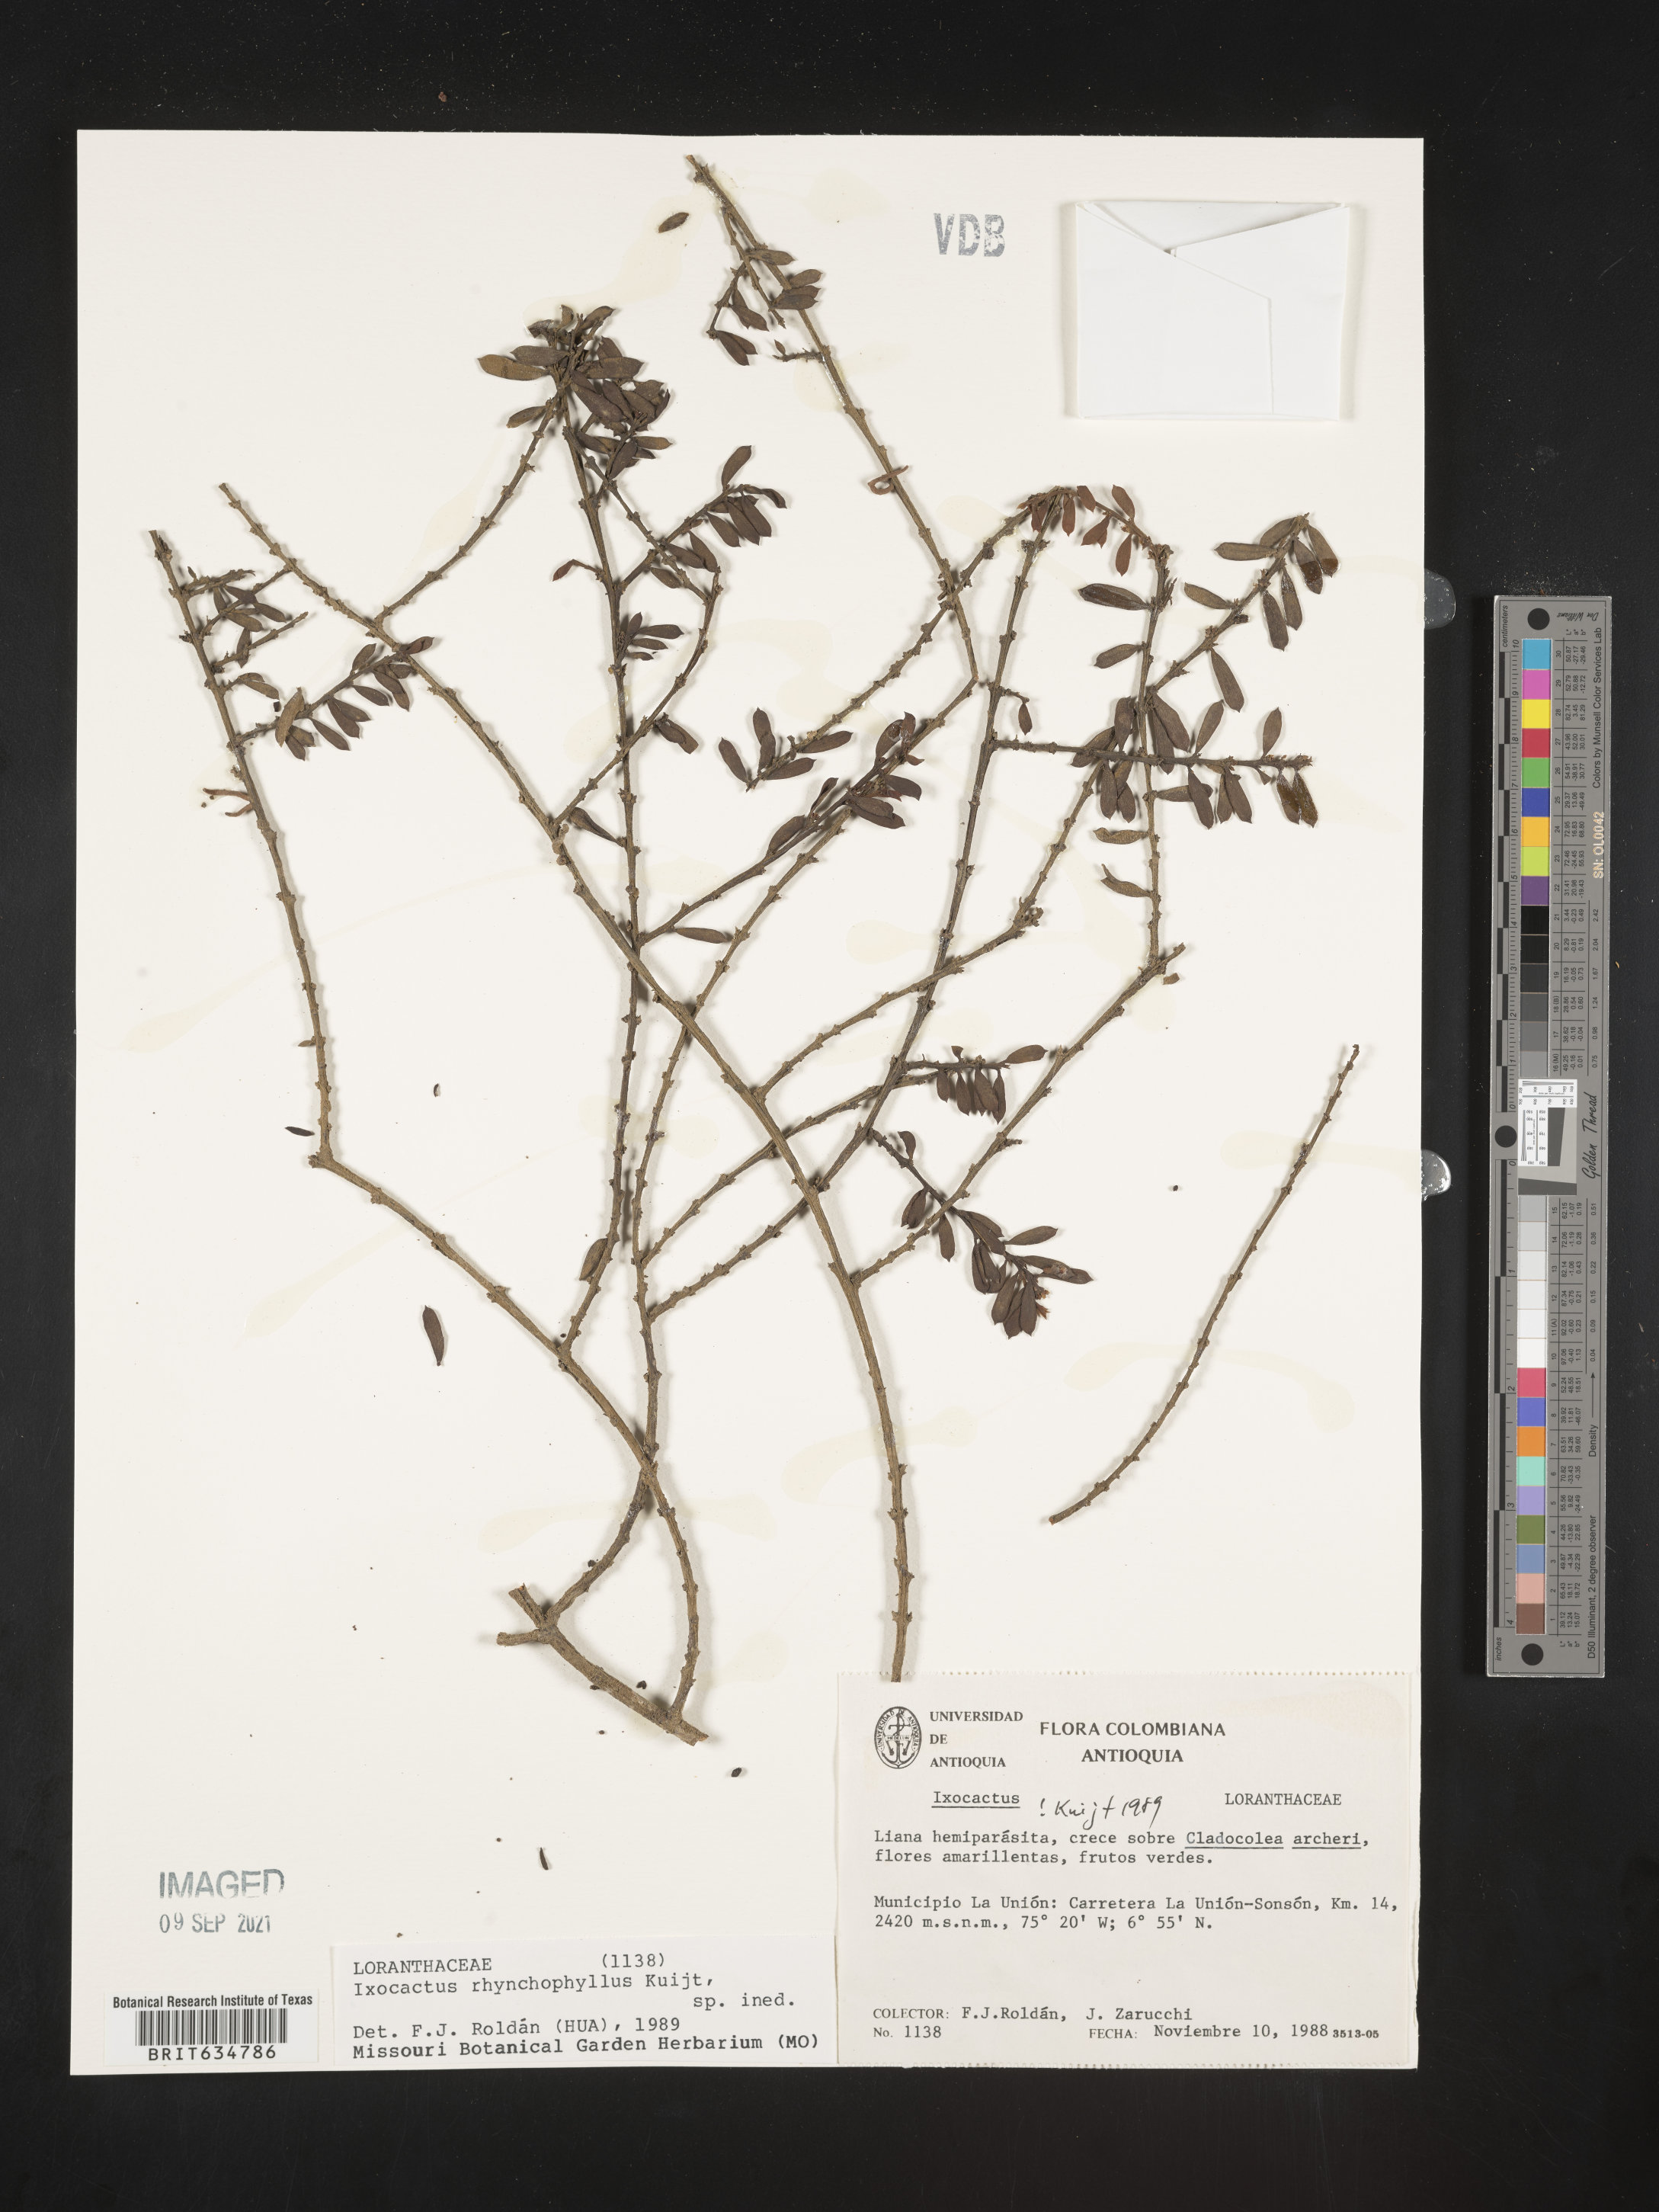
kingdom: Plantae
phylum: Tracheophyta
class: Magnoliopsida
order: Santalales
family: Loranthaceae
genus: Phthirusa
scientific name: Phthirusa
